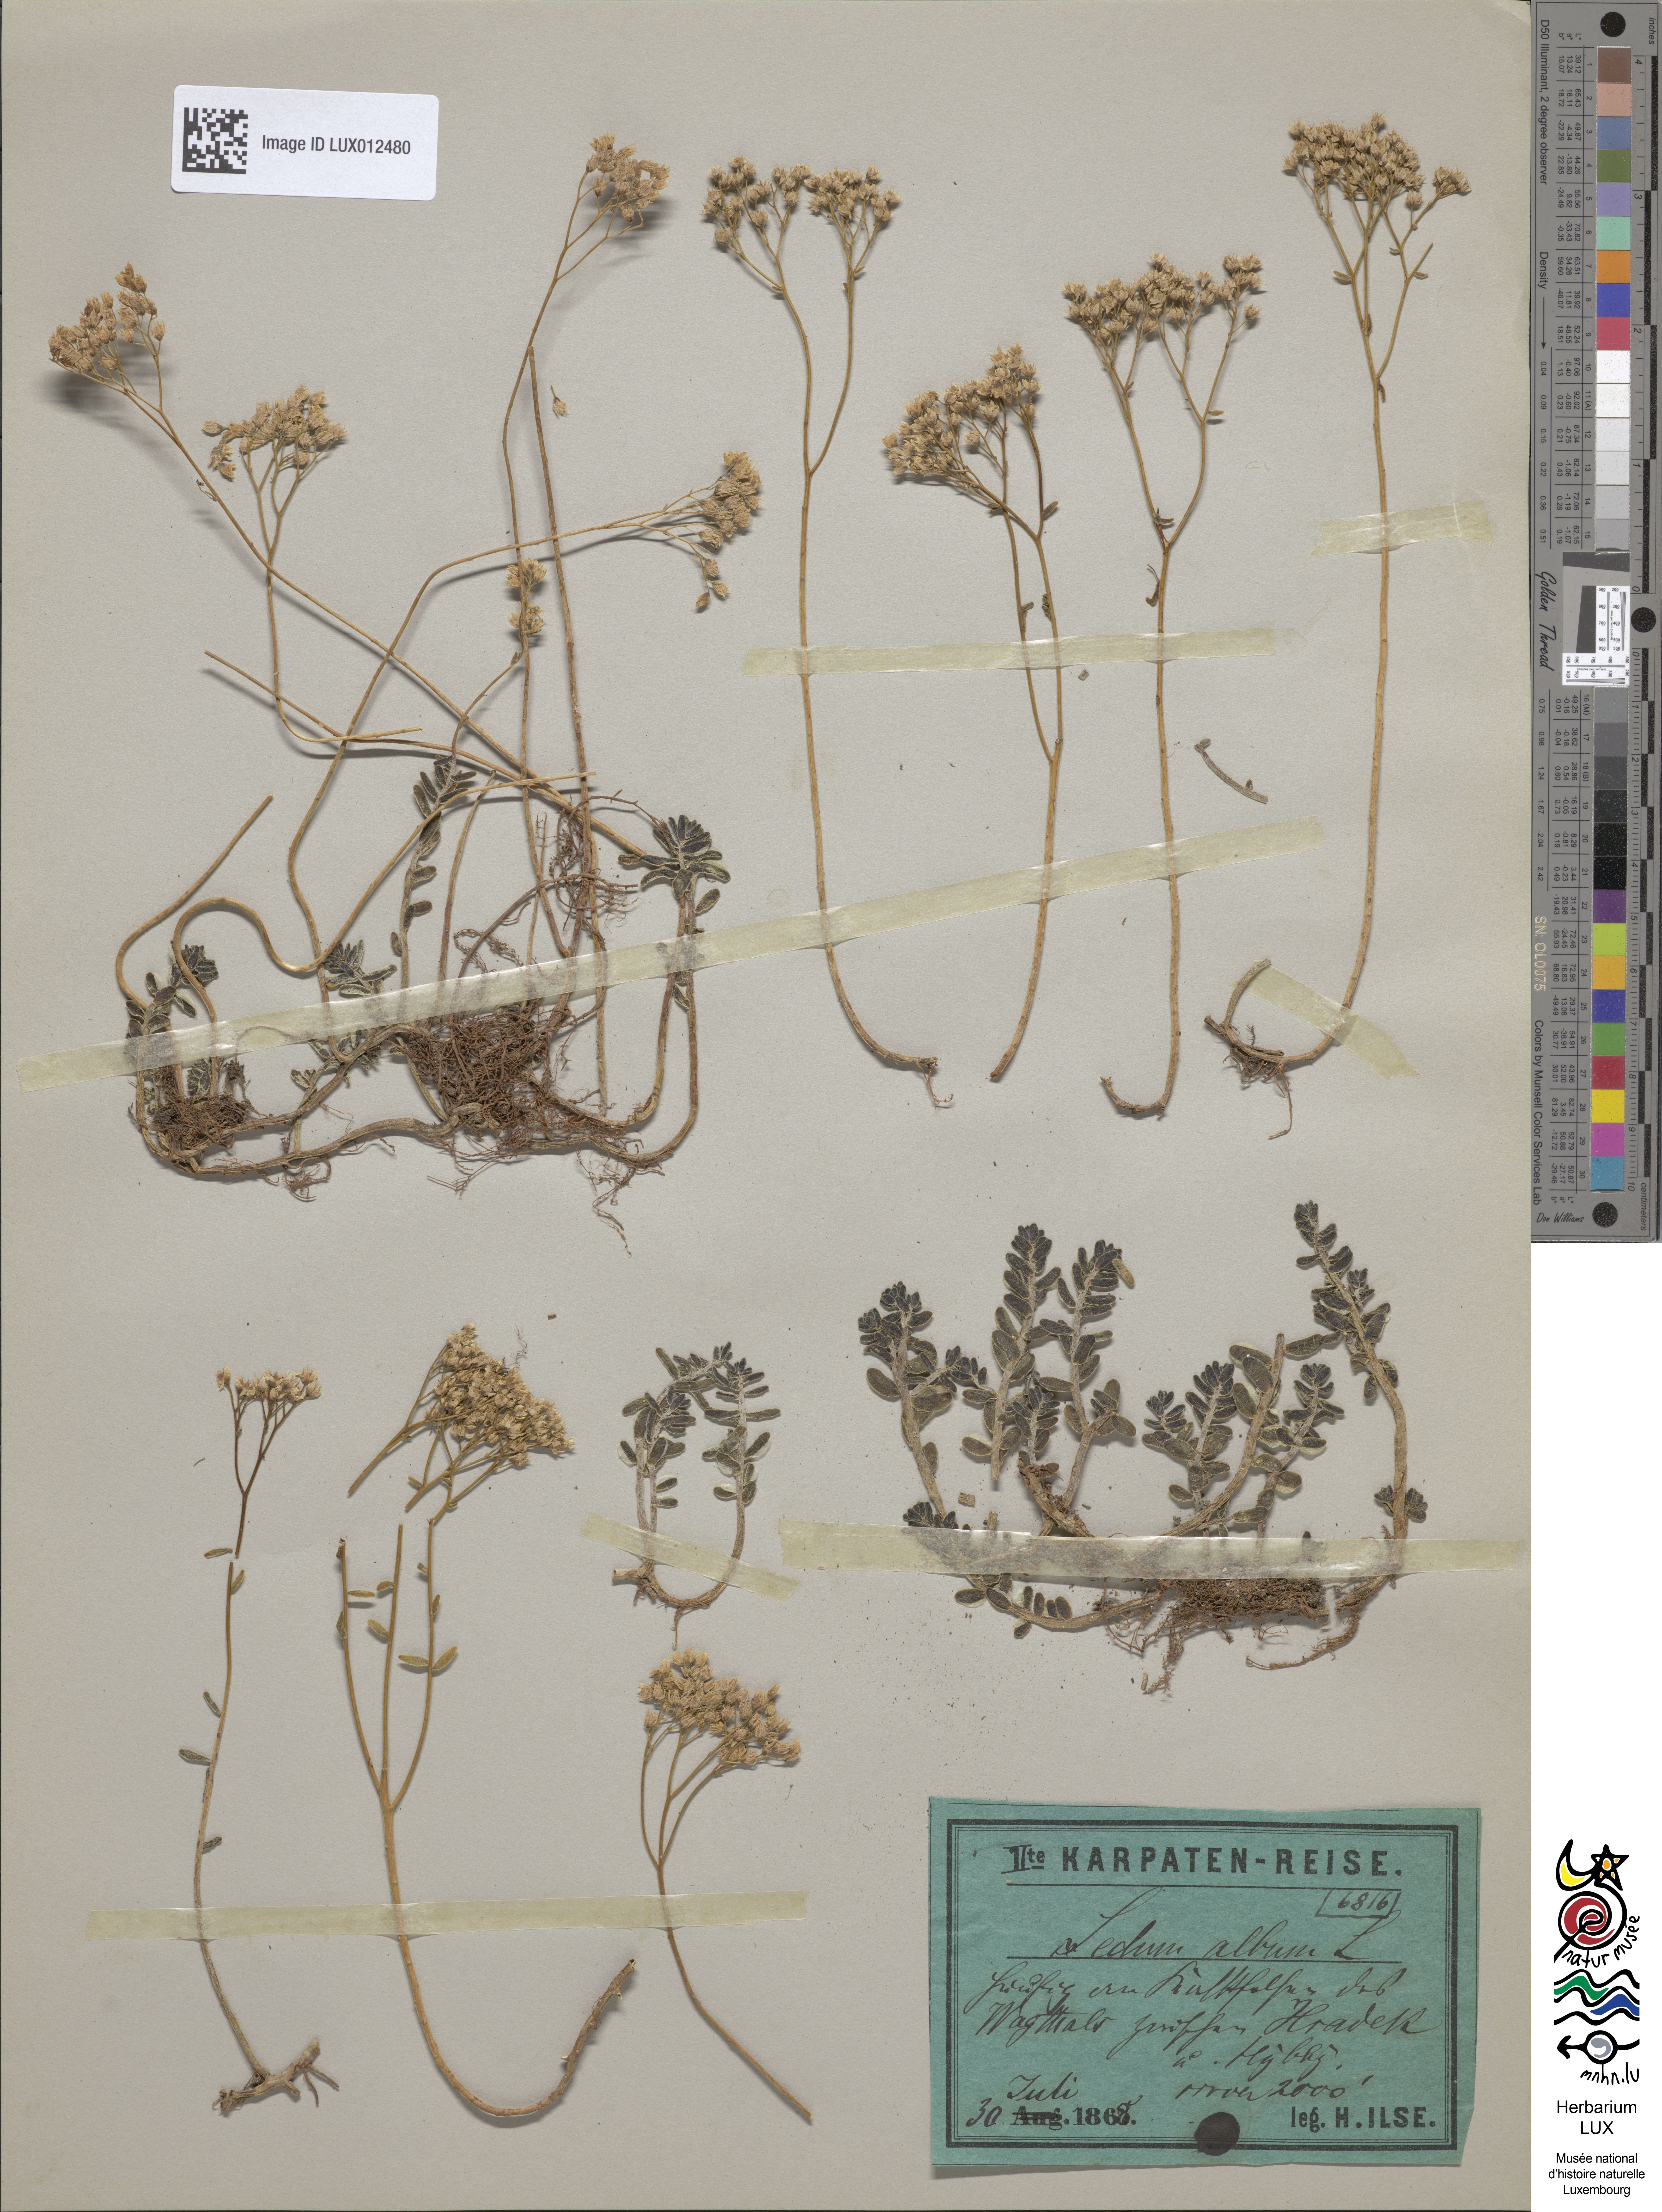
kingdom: Plantae
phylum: Tracheophyta
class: Magnoliopsida
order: Saxifragales
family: Crassulaceae
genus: Sedum
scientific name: Sedum album
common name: White stonecrop
